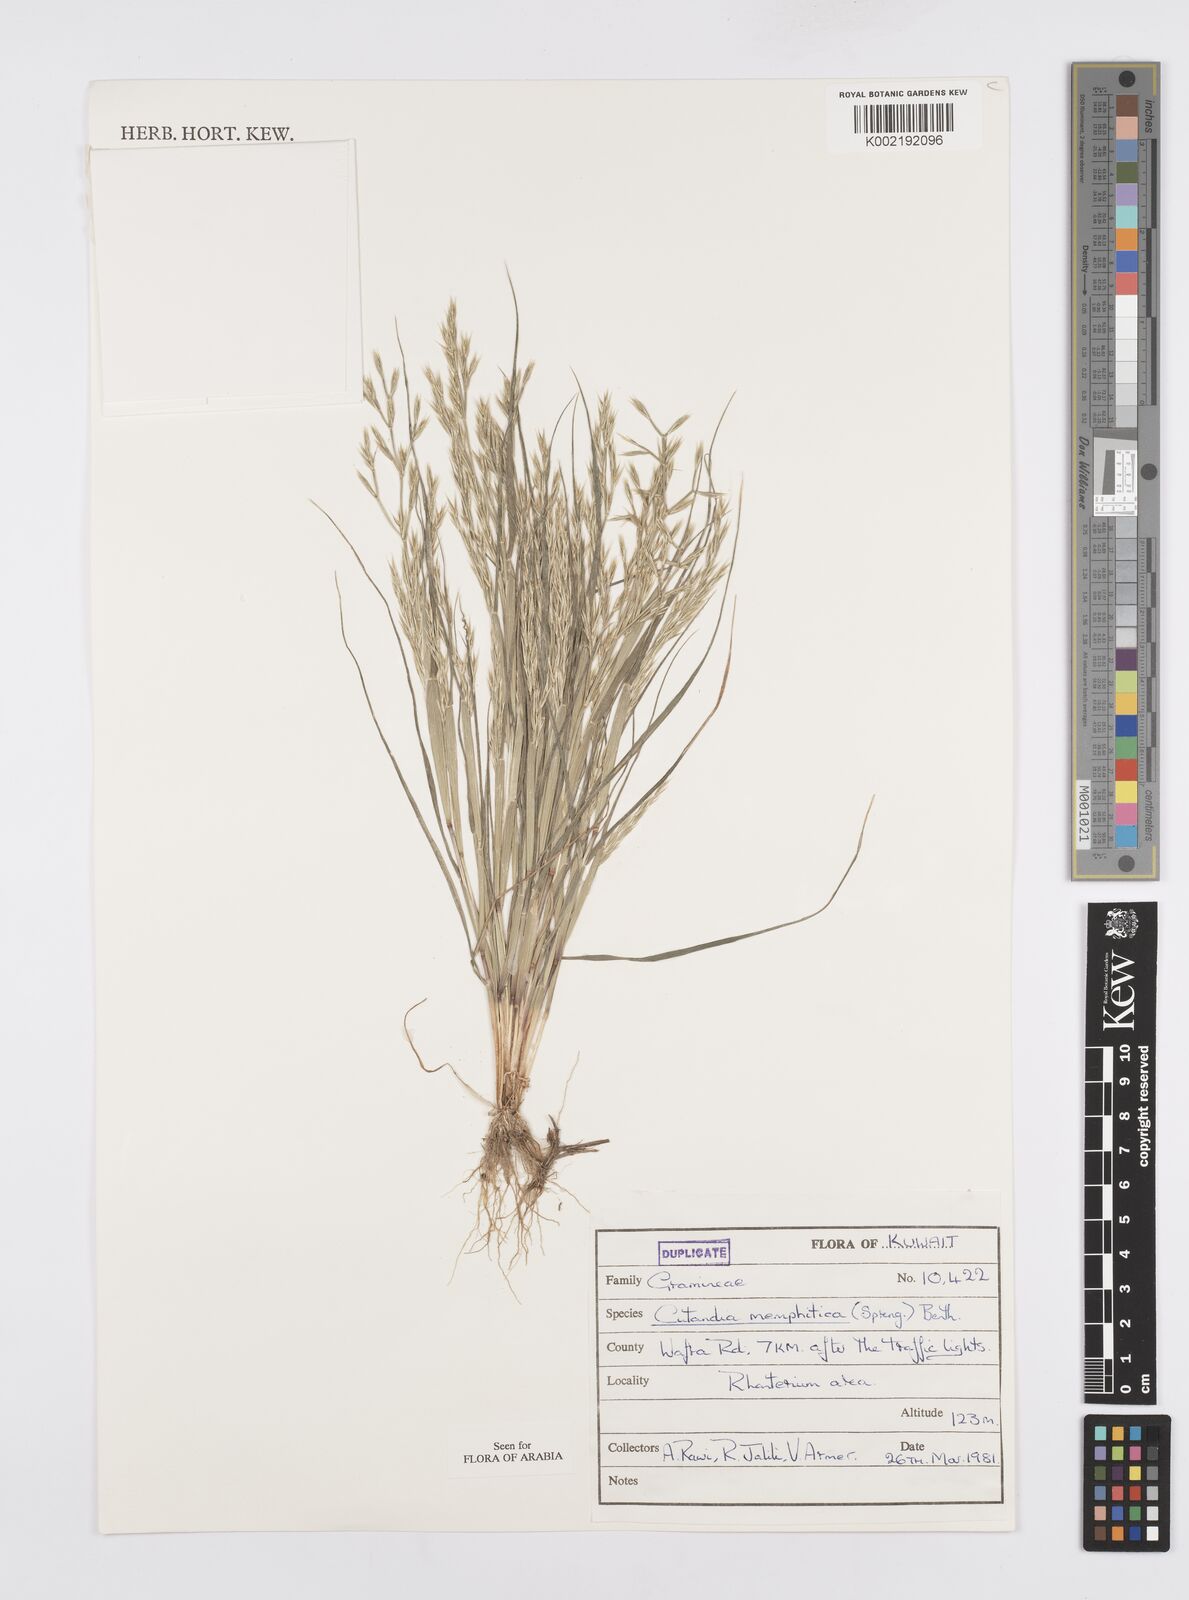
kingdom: Plantae
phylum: Tracheophyta
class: Liliopsida
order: Poales
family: Poaceae
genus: Cutandia
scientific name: Cutandia memphitica
